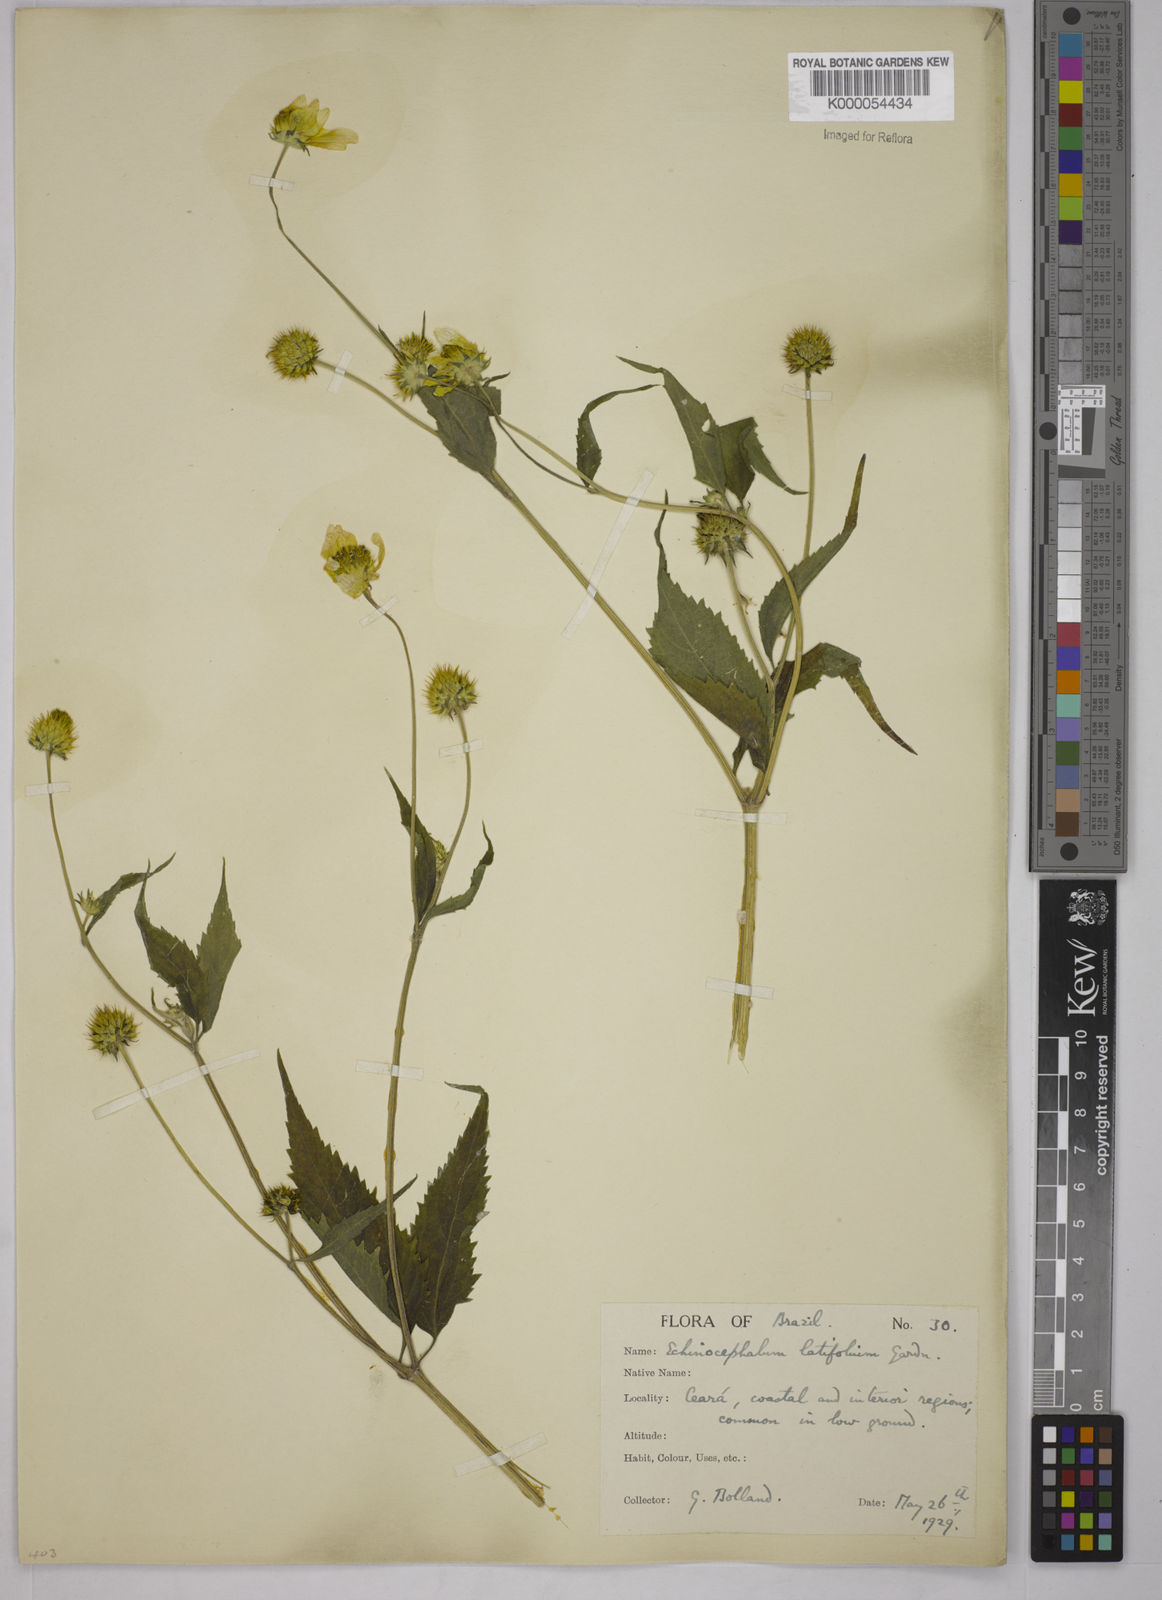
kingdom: Plantae
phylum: Tracheophyta
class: Magnoliopsida
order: Asterales
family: Asteraceae
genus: Echinocephalum
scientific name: Echinocephalum latifolium
